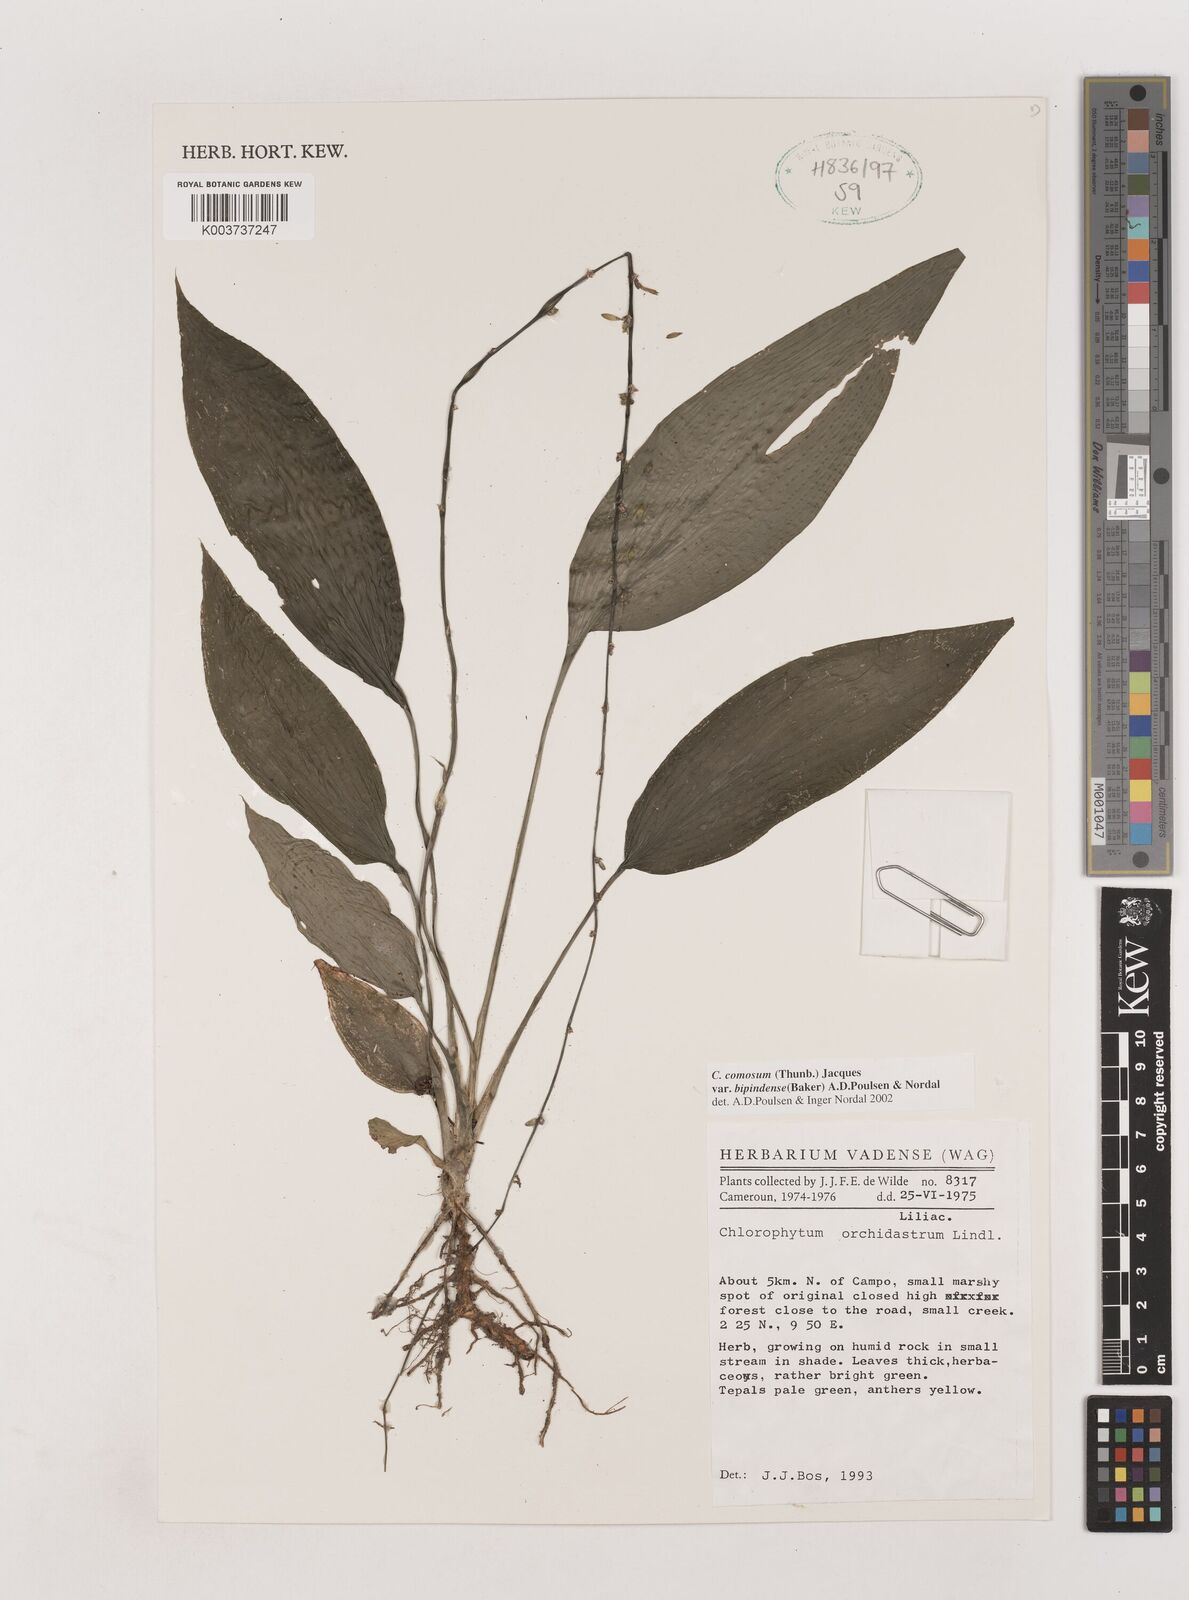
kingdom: Plantae
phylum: Tracheophyta
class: Liliopsida
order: Asparagales
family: Asparagaceae
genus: Chlorophytum
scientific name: Chlorophytum sparsiflorum
